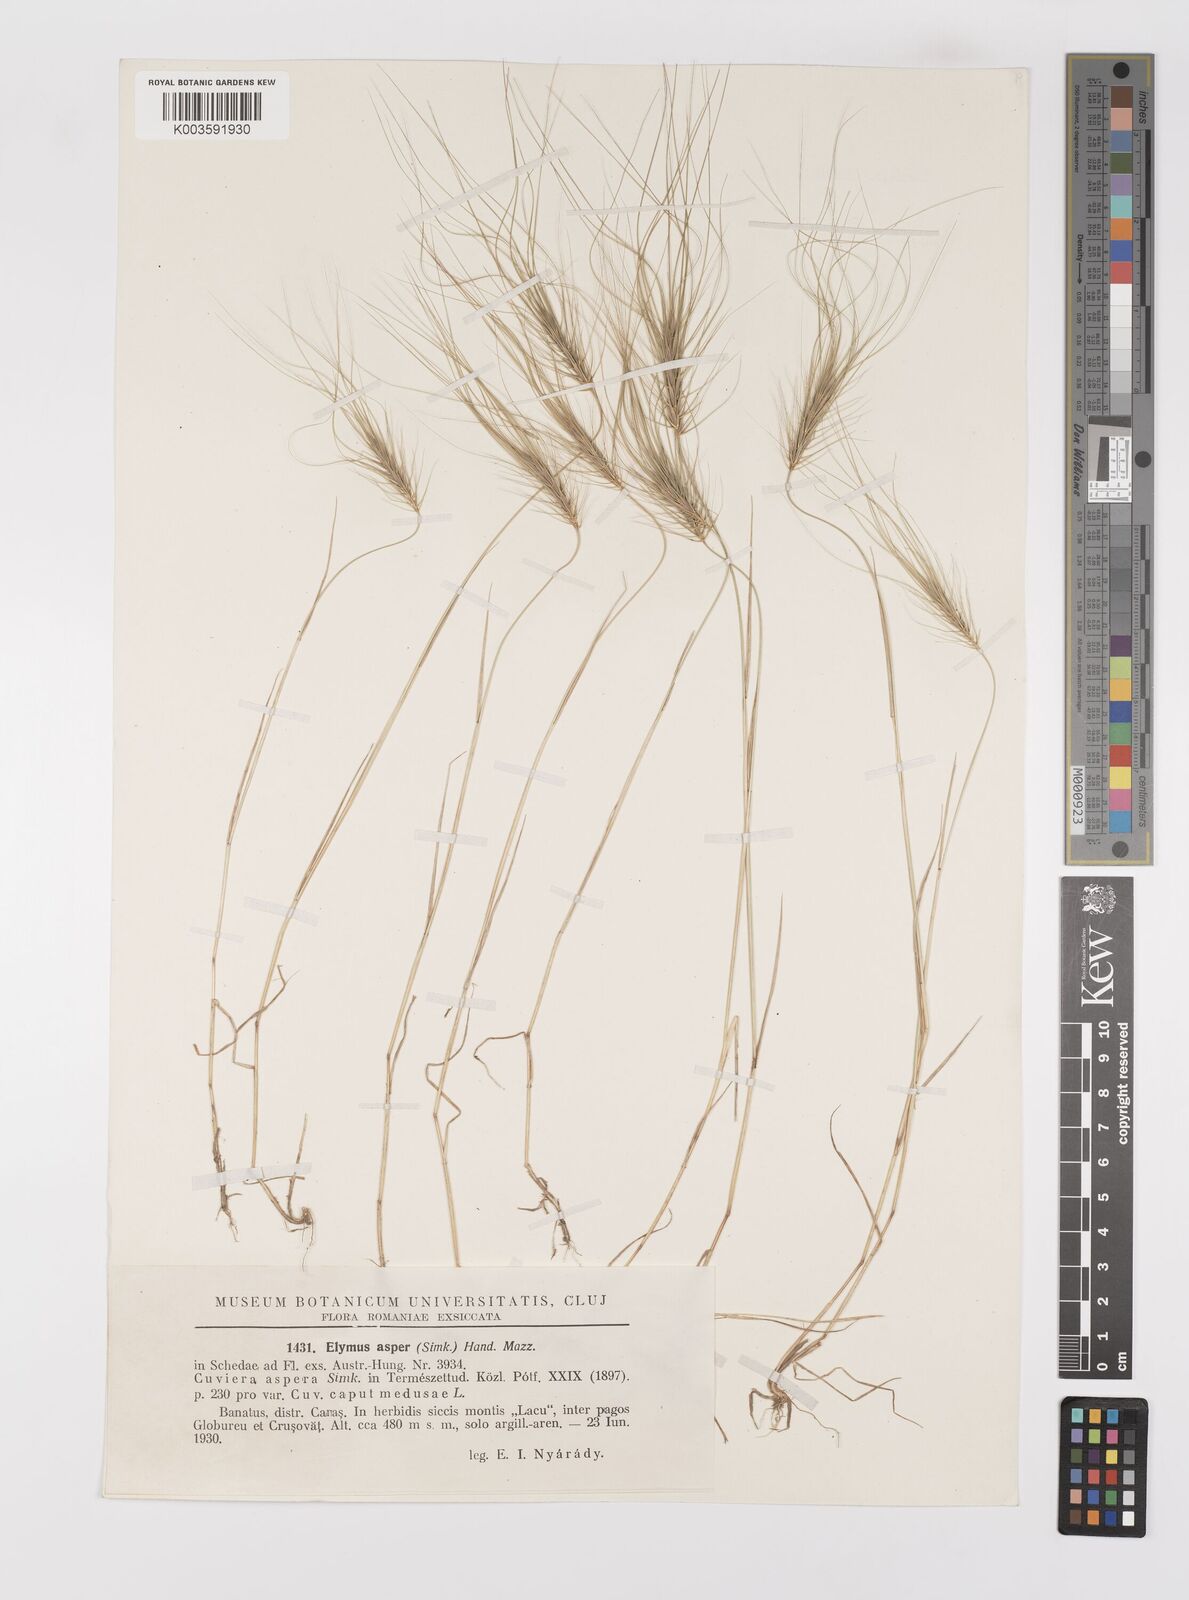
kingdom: Plantae
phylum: Tracheophyta
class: Liliopsida
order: Poales
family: Poaceae
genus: Taeniatherum
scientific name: Taeniatherum caput-medusae
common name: Medusahead
